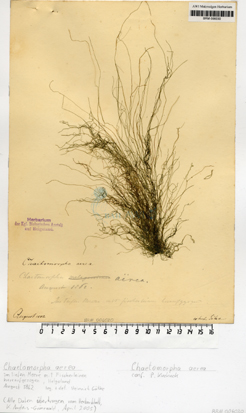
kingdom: Plantae
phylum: Chlorophyta
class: Ulvophyceae
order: Cladophorales
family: Cladophoraceae
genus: Chaetomorpha
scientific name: Chaetomorpha aerea
